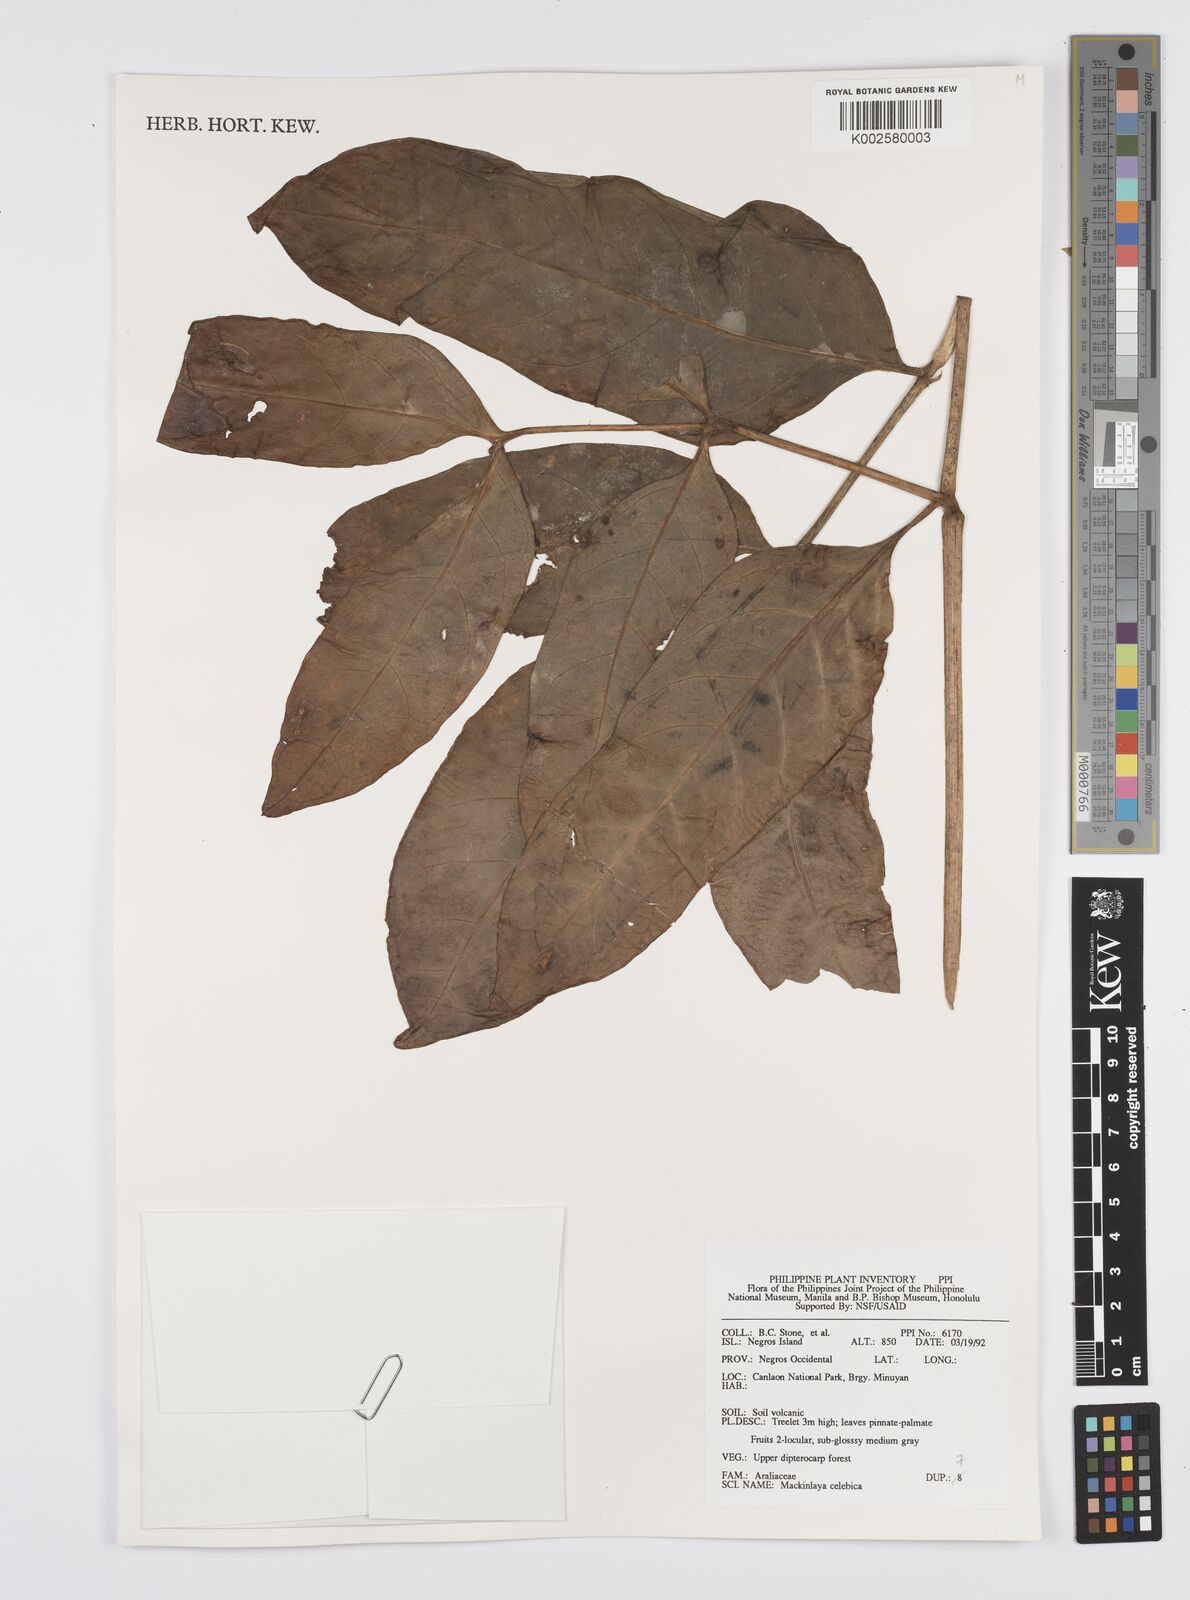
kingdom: Plantae
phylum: Tracheophyta
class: Magnoliopsida
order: Apiales
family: Apiaceae
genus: Mackinlaya
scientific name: Mackinlaya celebica
